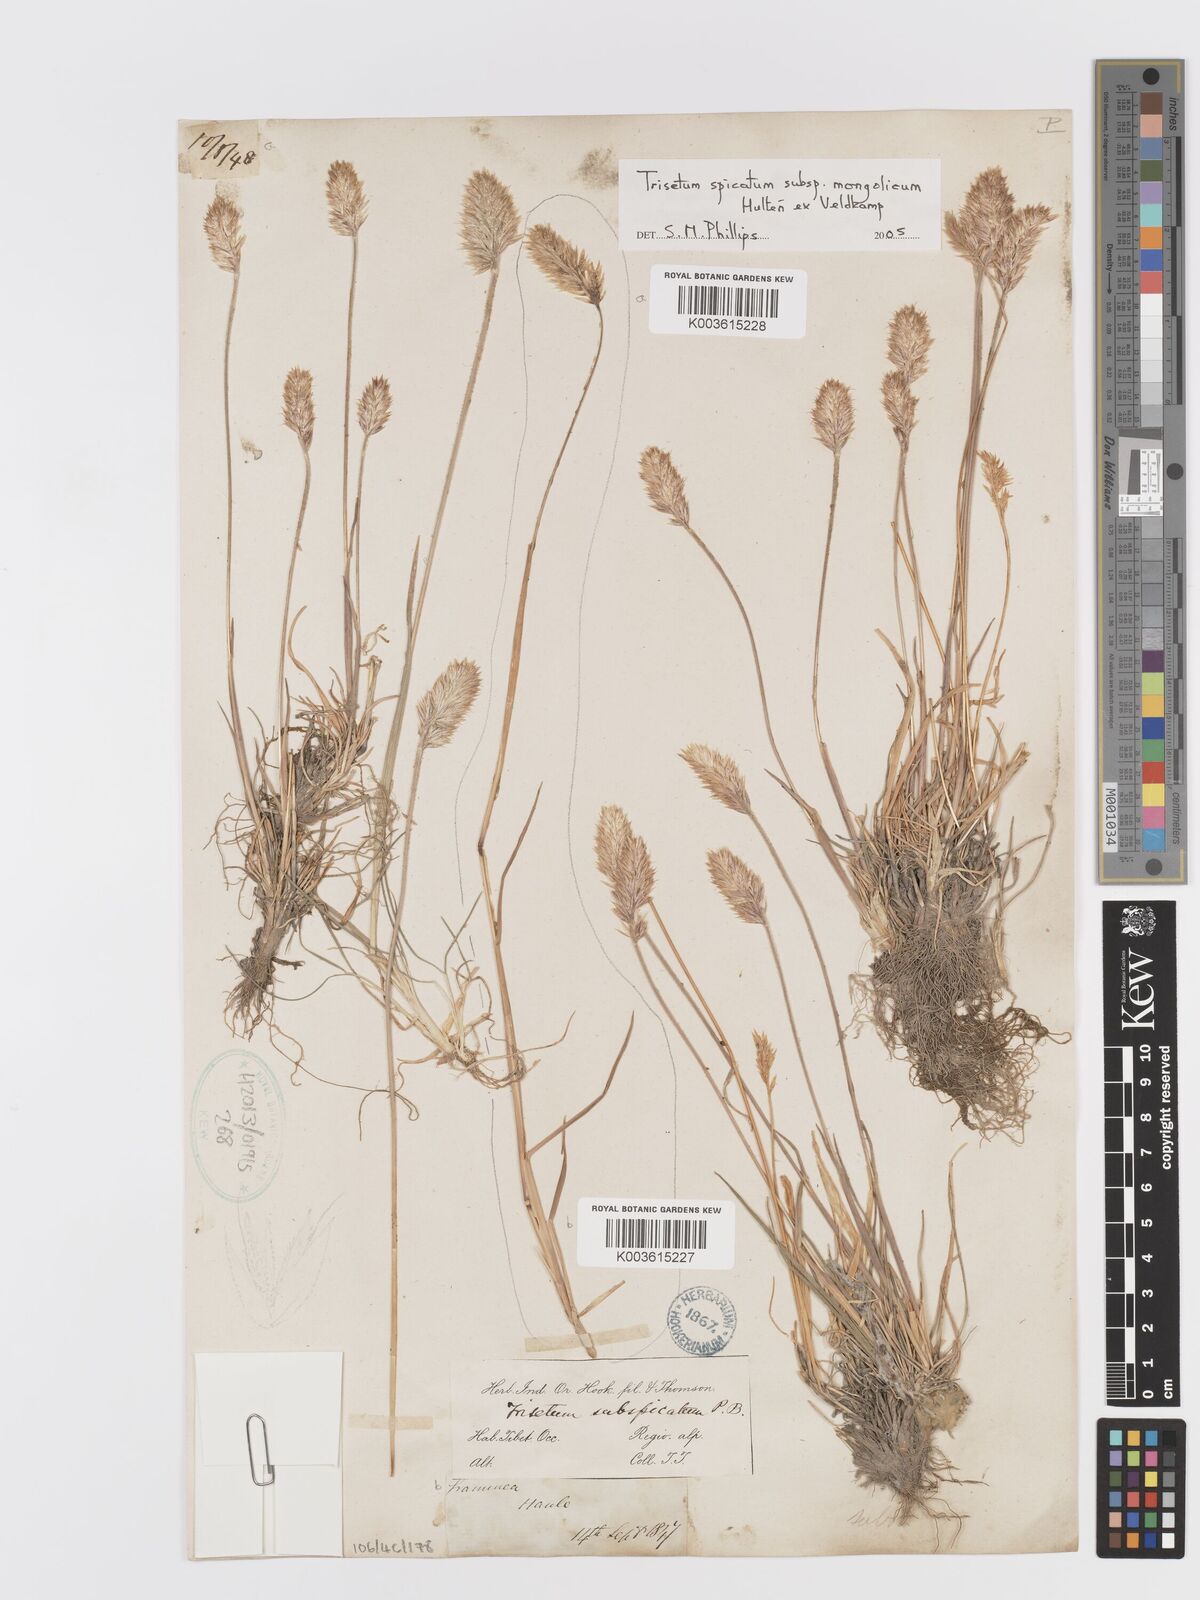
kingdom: Plantae
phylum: Tracheophyta
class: Liliopsida
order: Poales
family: Poaceae
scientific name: Poaceae
